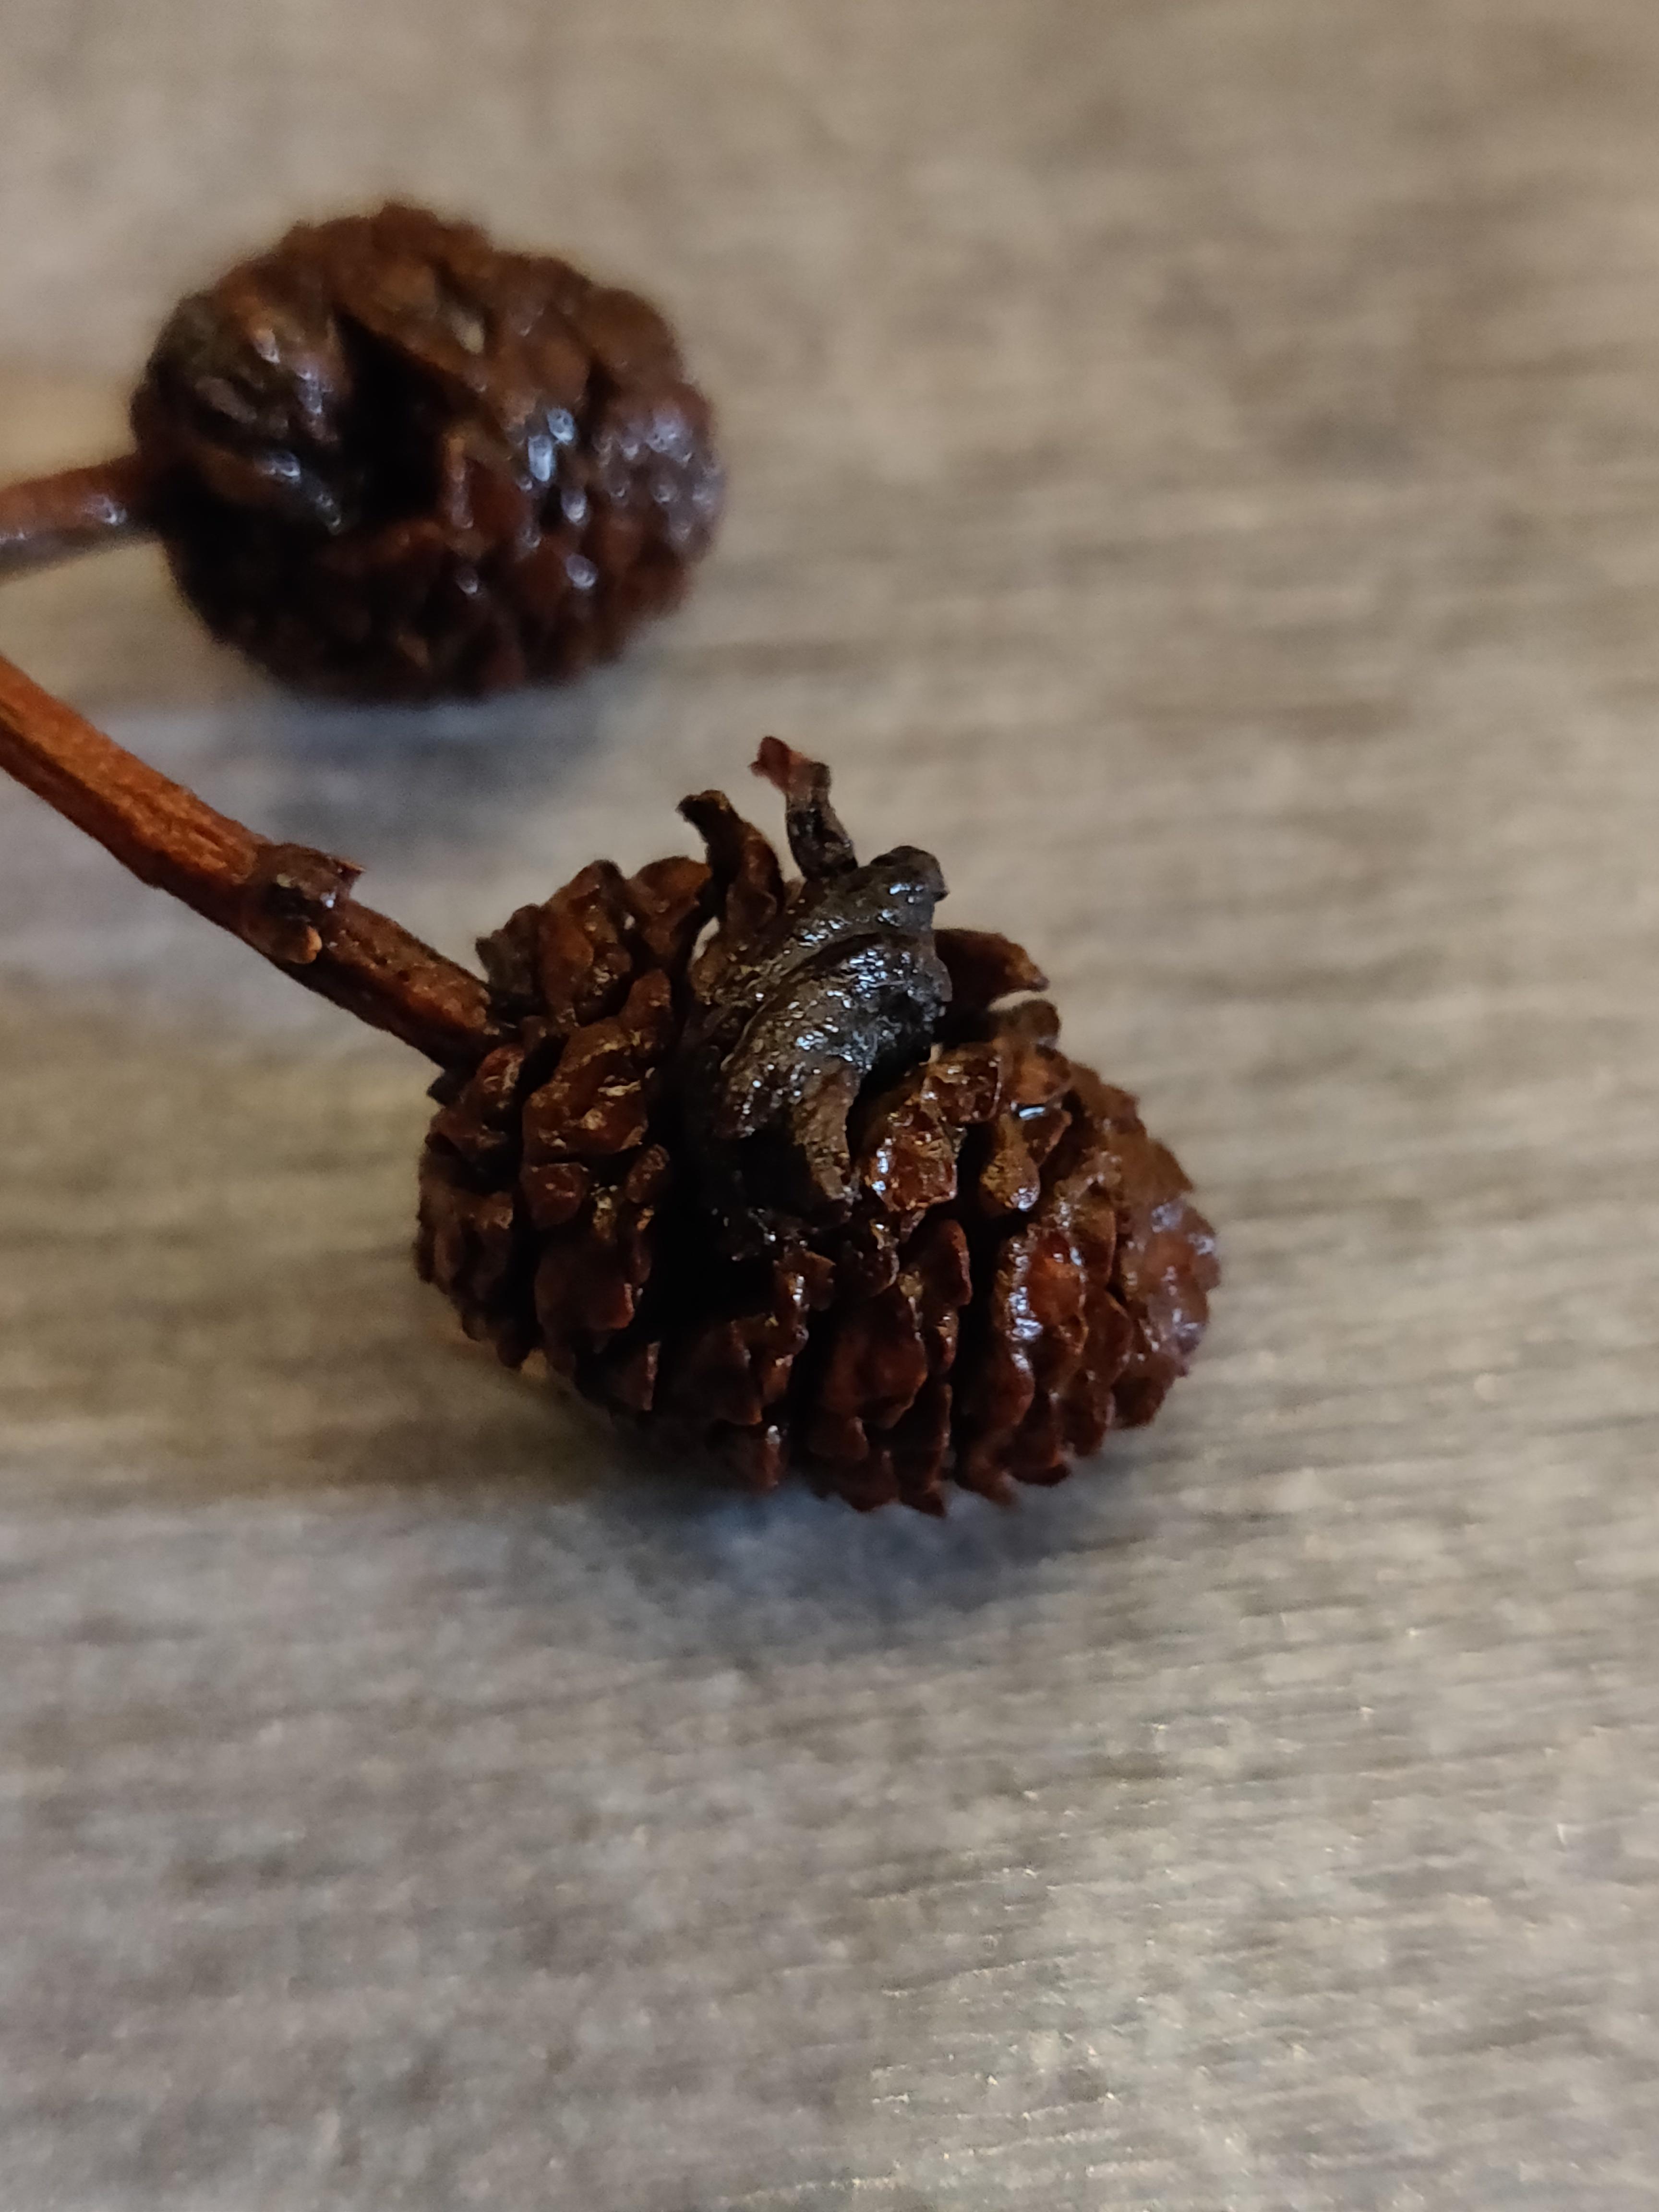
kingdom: Fungi
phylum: Ascomycota
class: Taphrinomycetes
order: Taphrinales
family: Taphrinaceae
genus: Taphrina
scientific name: Taphrina alni
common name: Alder tongue
